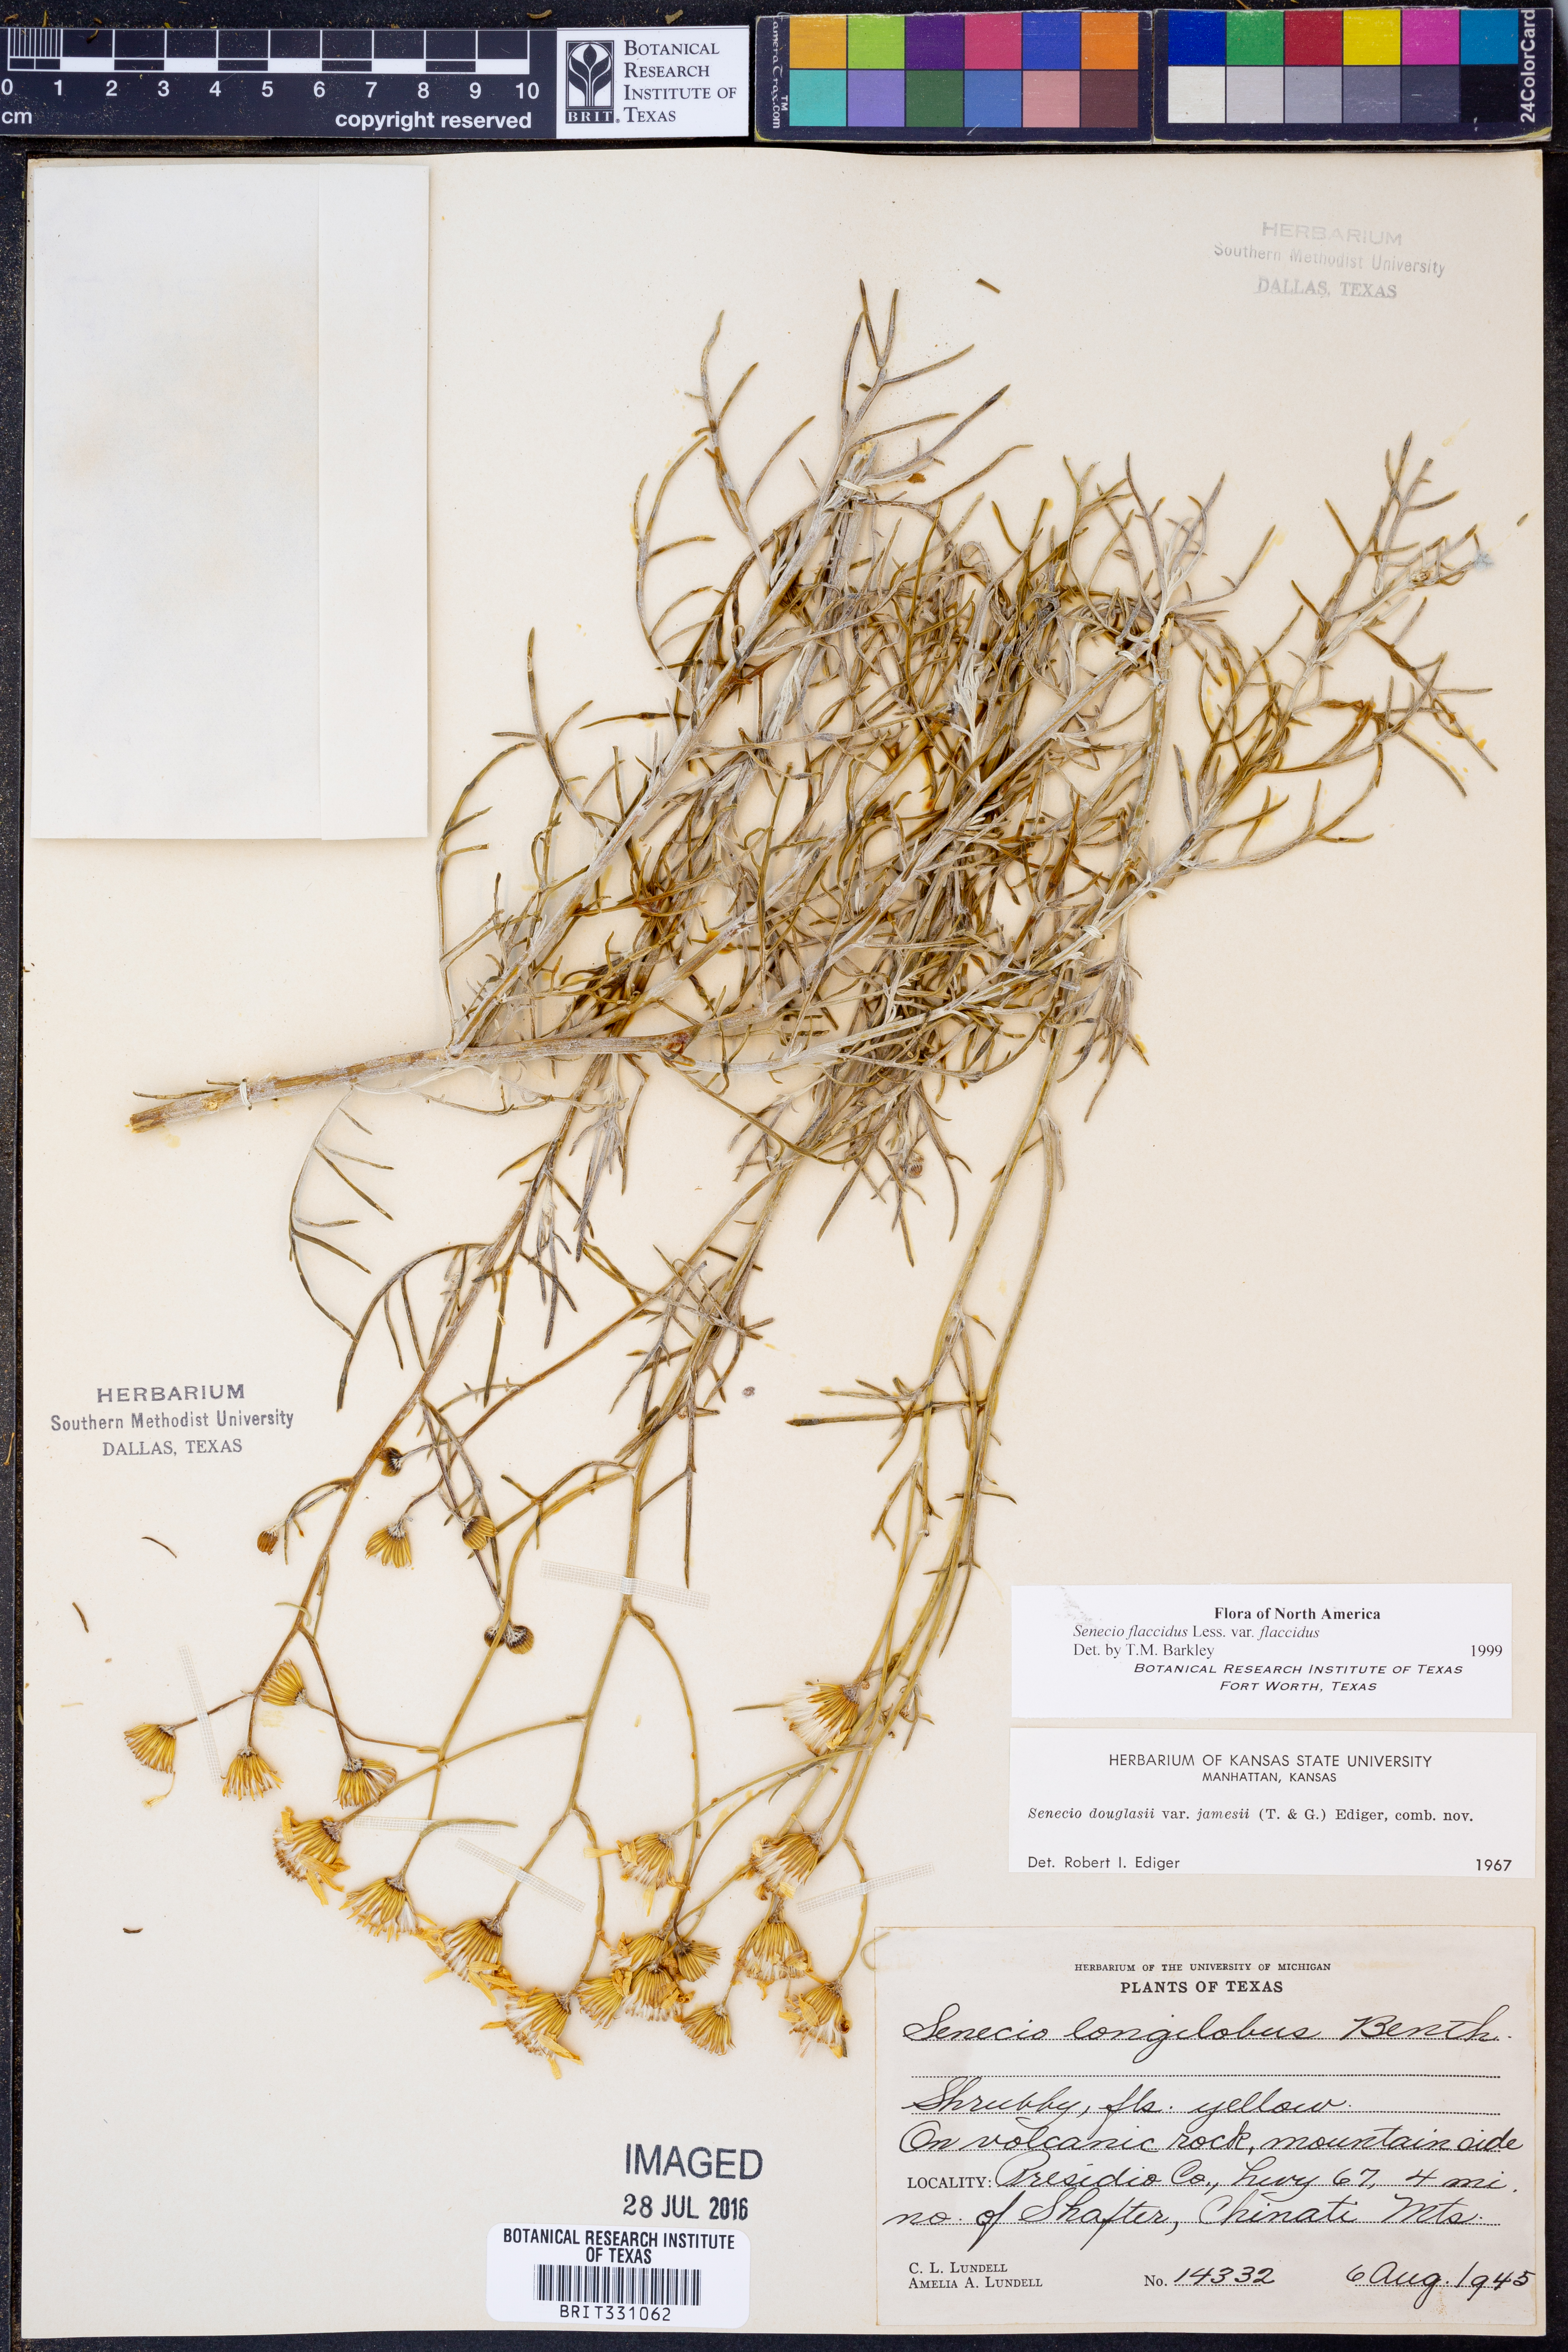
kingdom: Plantae
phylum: Tracheophyta
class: Magnoliopsida
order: Asterales
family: Asteraceae
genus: Senecio
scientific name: Senecio flaccidus
